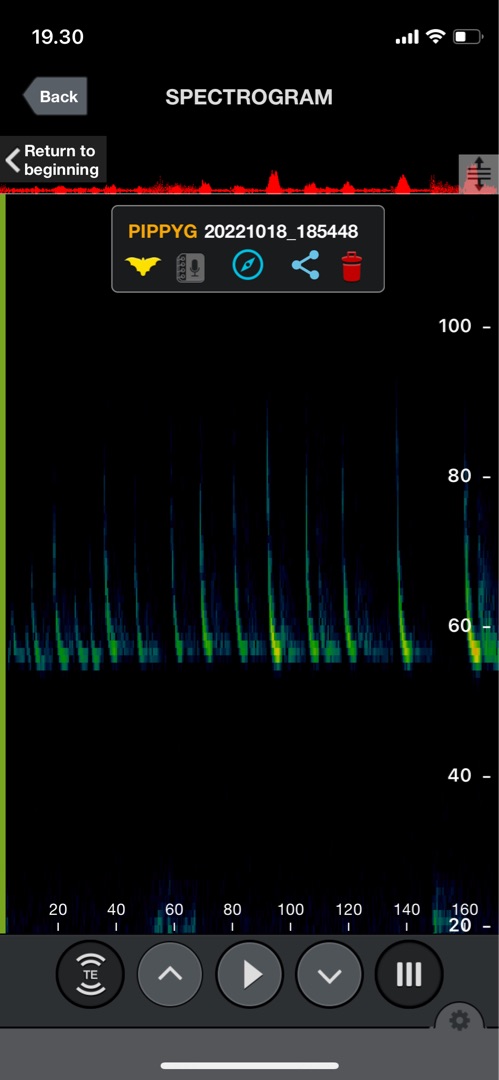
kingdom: Animalia
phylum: Chordata
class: Mammalia
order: Chiroptera
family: Vespertilionidae
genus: Pipistrellus
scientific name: Pipistrellus pygmaeus
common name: Dværgflagermus
